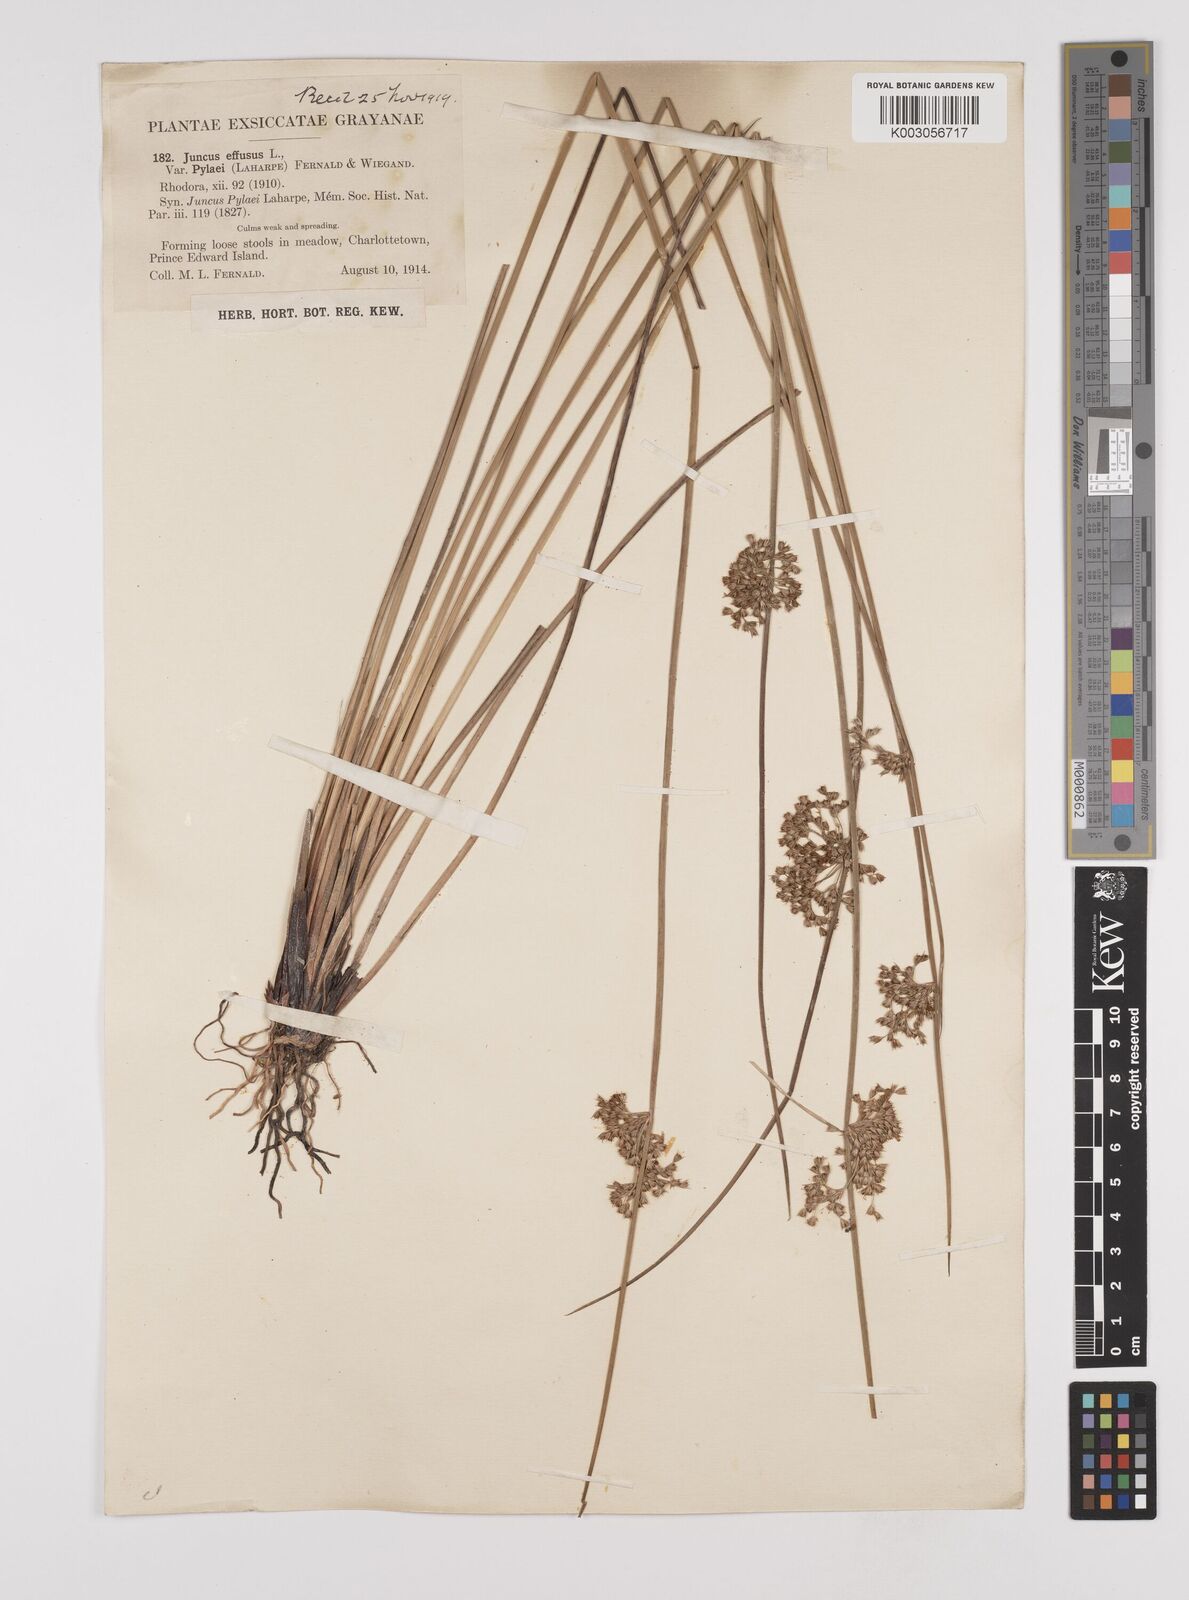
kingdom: Plantae
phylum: Tracheophyta
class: Liliopsida
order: Poales
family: Juncaceae
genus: Juncus
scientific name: Juncus pylaei
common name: Common rush
